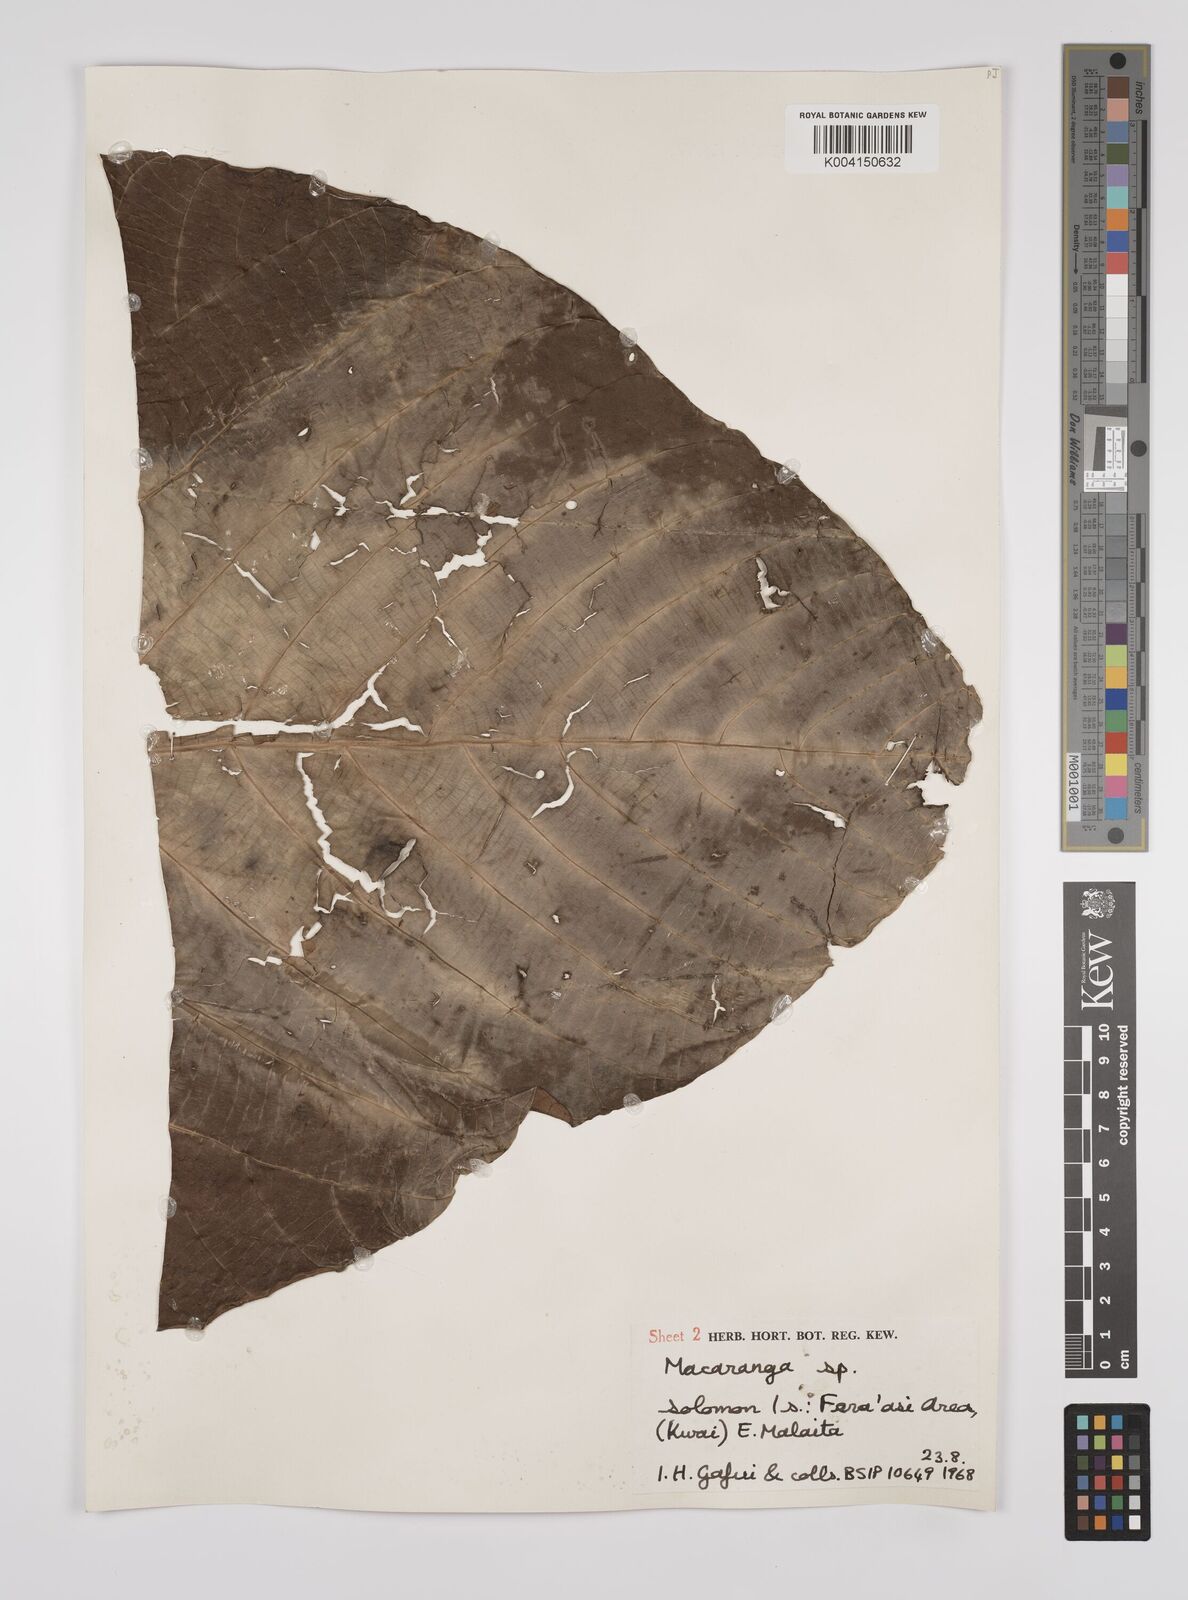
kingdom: Plantae
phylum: Tracheophyta
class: Magnoliopsida
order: Malpighiales
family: Euphorbiaceae
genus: Macaranga
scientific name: Macaranga whitmorei
